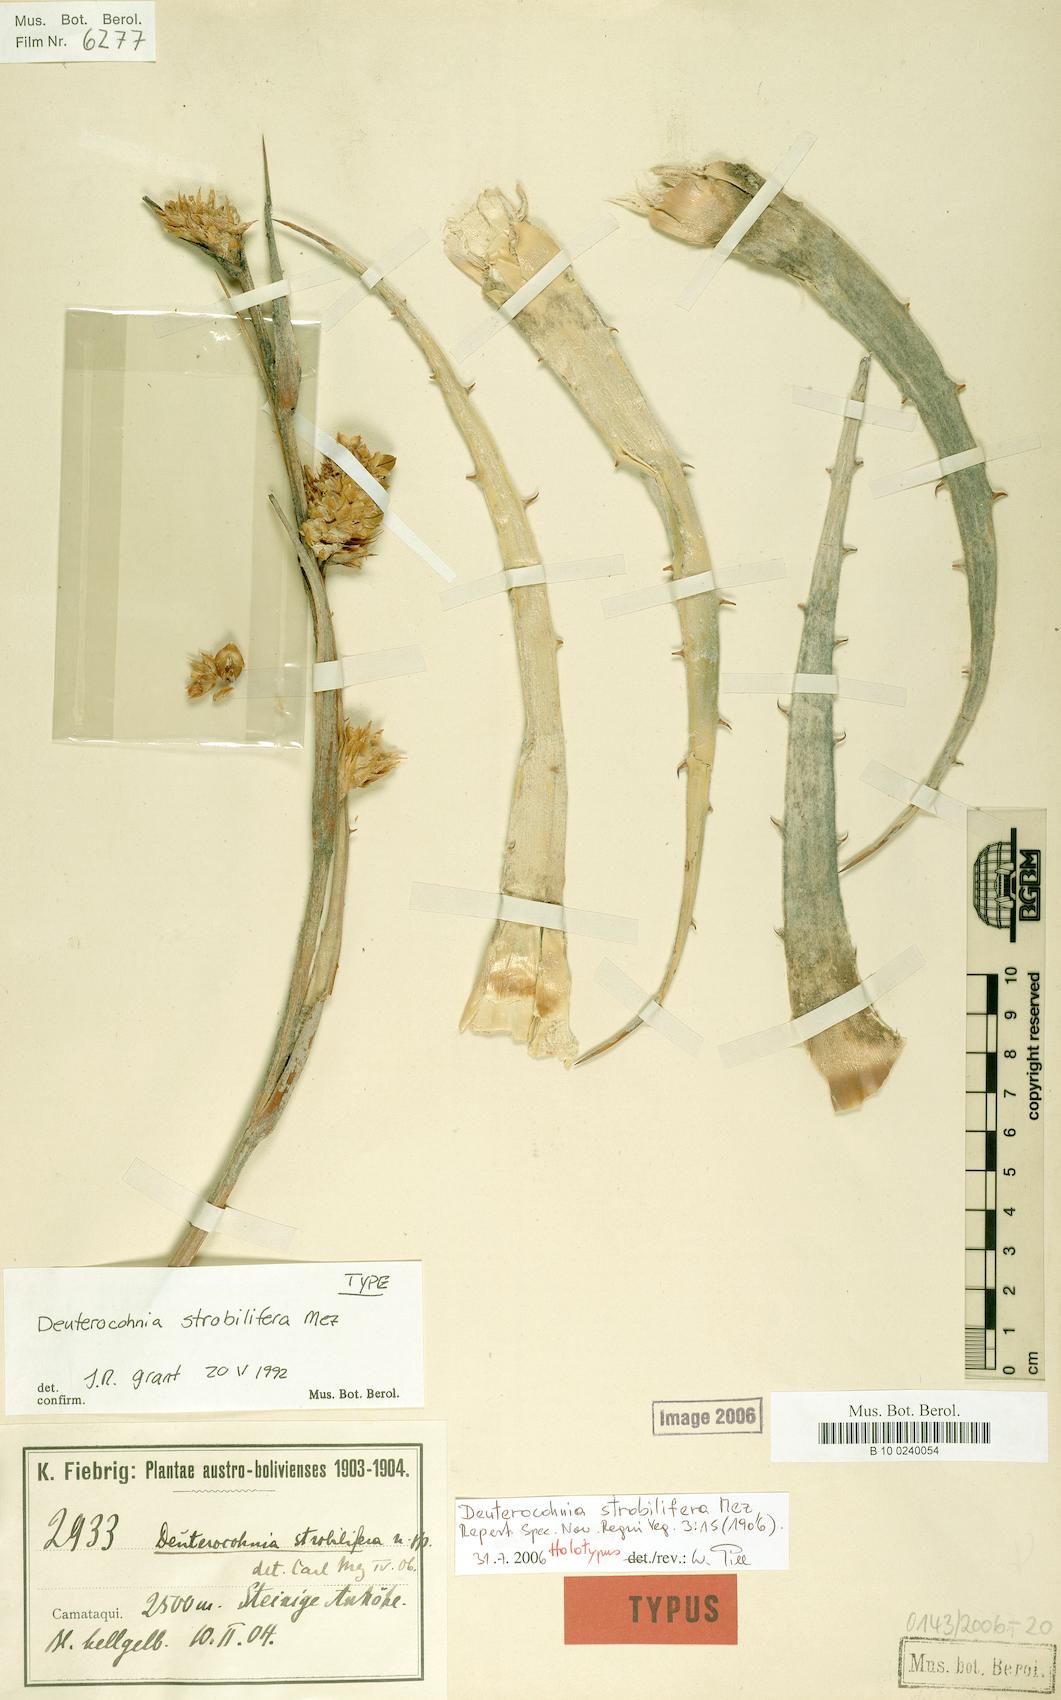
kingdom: Plantae
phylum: Tracheophyta
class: Liliopsida
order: Poales
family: Bromeliaceae
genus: Deuterocohnia
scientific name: Deuterocohnia strobilifera
